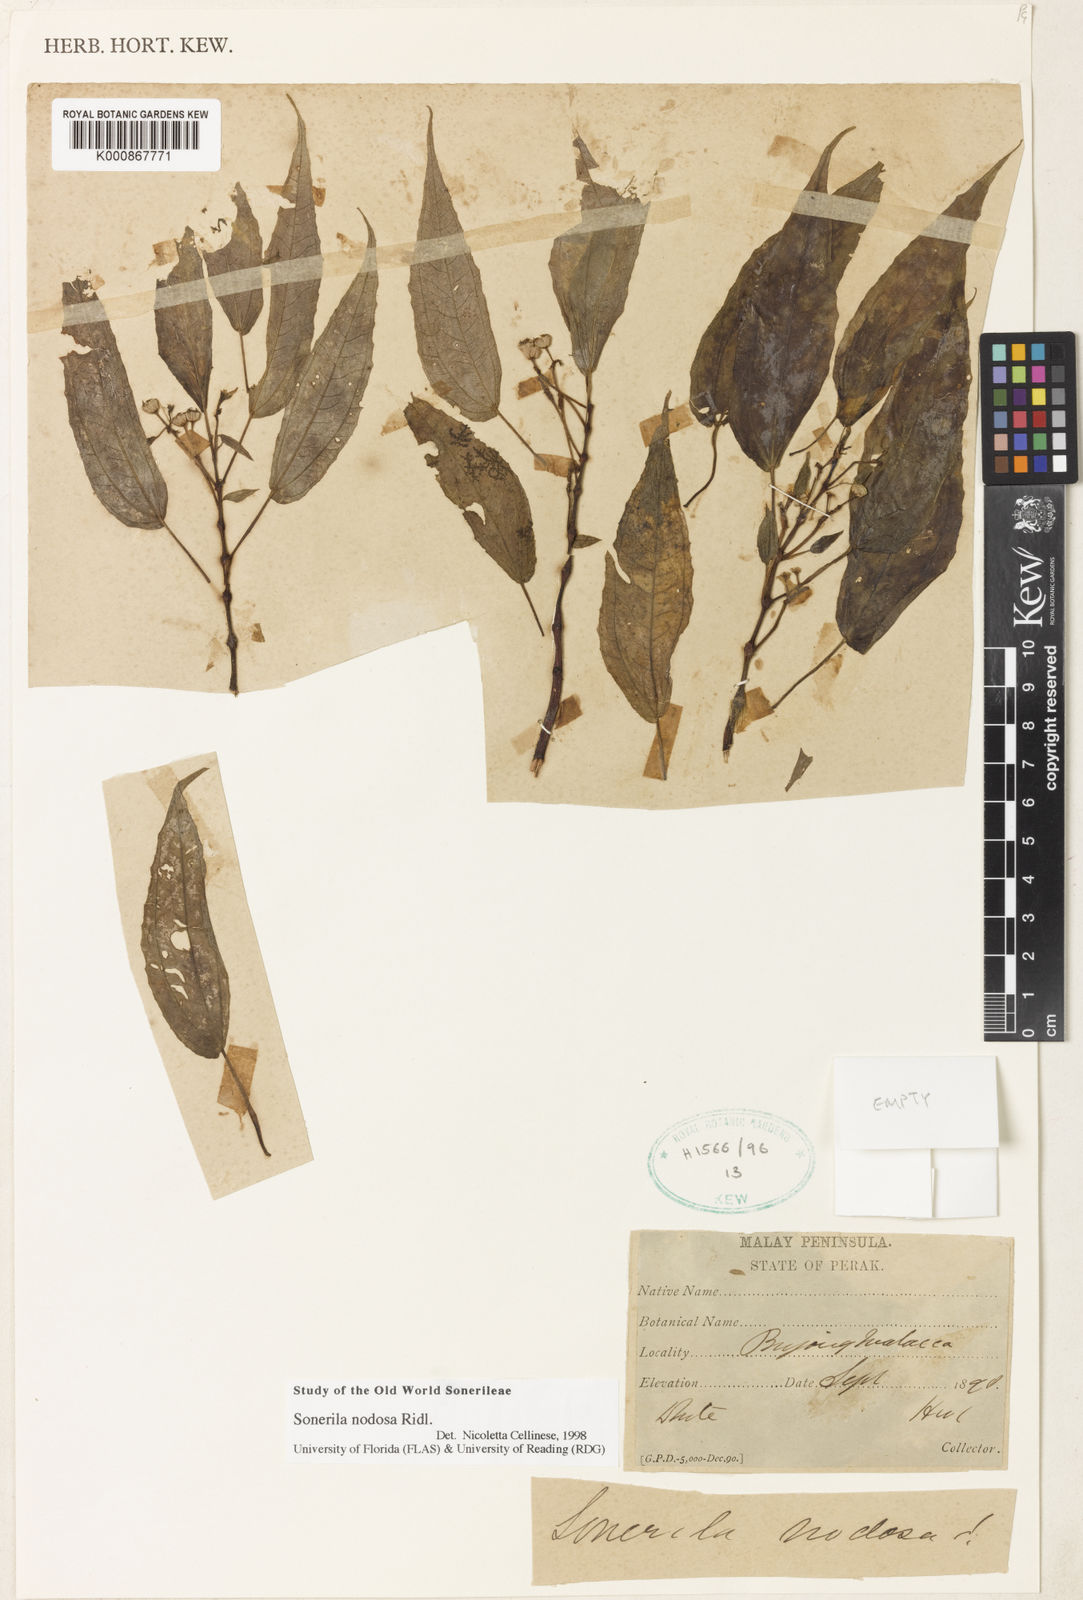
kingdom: Plantae
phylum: Tracheophyta
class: Magnoliopsida
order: Myrtales
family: Melastomataceae
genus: Sonerila
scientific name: Sonerila nodosa
